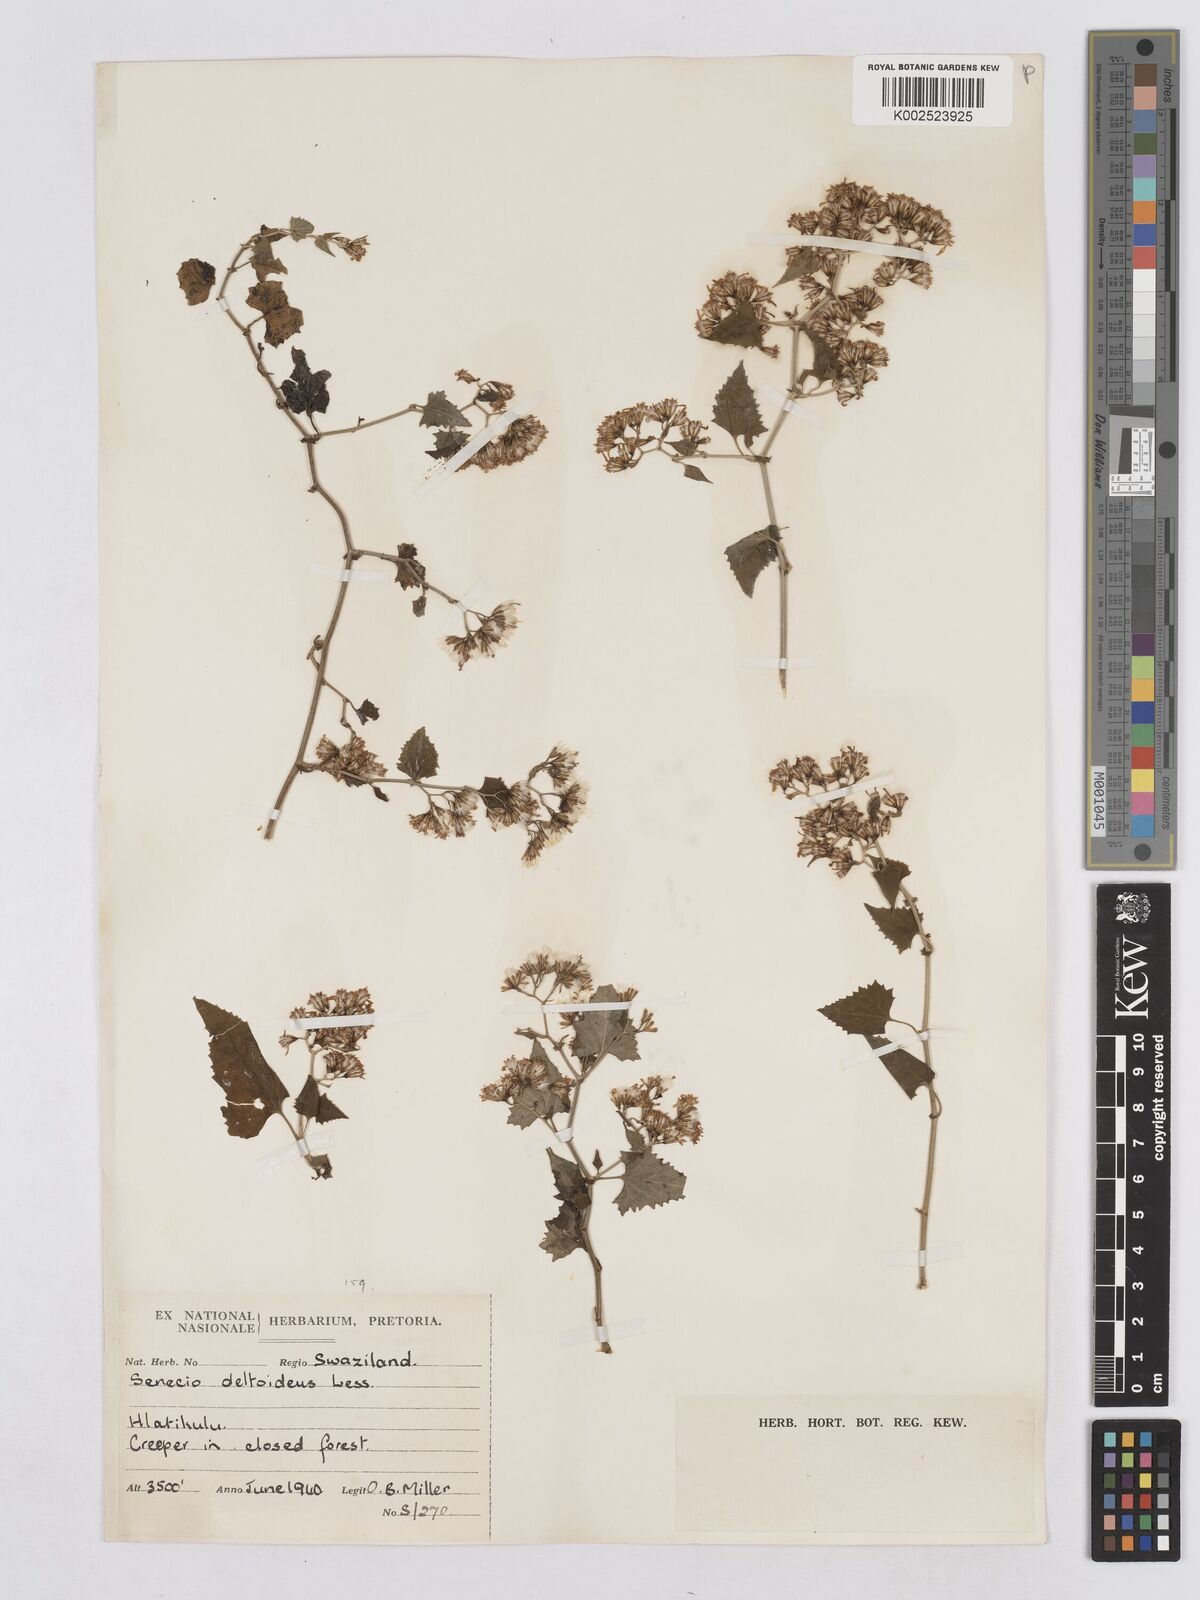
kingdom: Plantae
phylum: Tracheophyta
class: Magnoliopsida
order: Asterales
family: Asteraceae
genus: Senecio
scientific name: Senecio deltoideus
